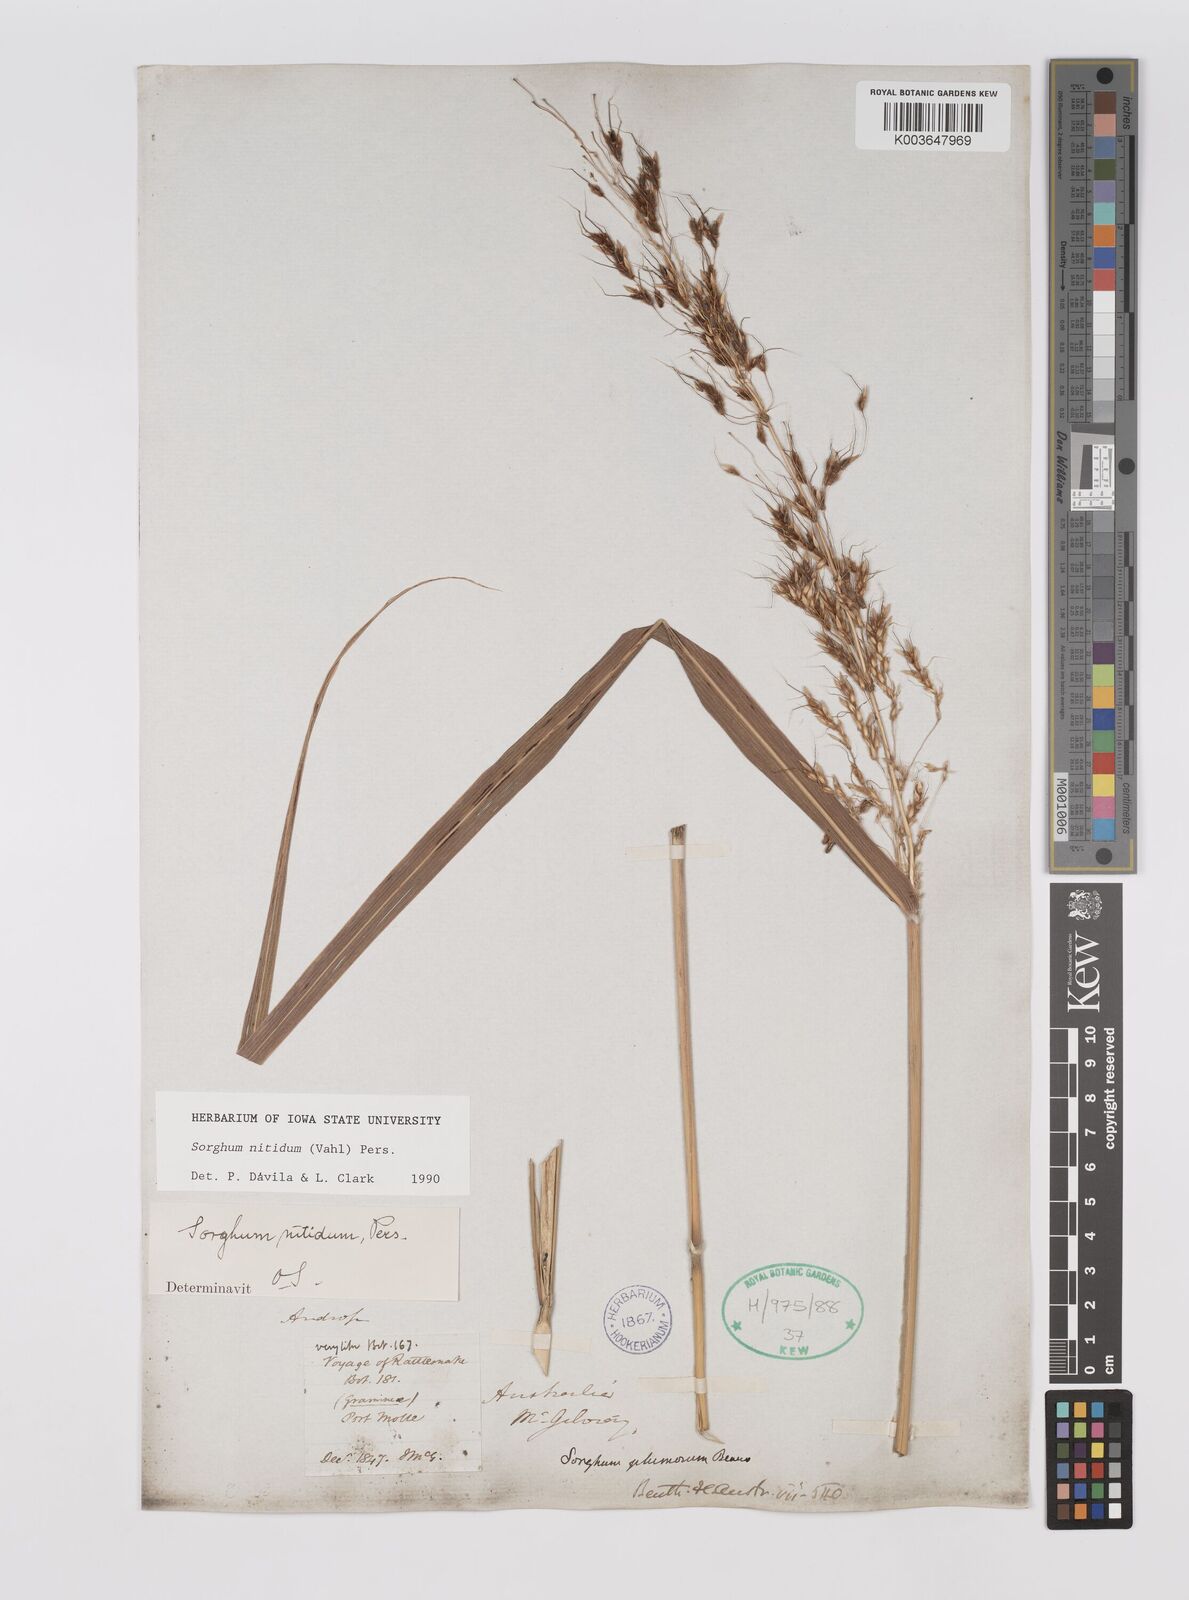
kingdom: Plantae
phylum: Tracheophyta
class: Liliopsida
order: Poales
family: Poaceae
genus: Sorghum
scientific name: Sorghum nitidum
